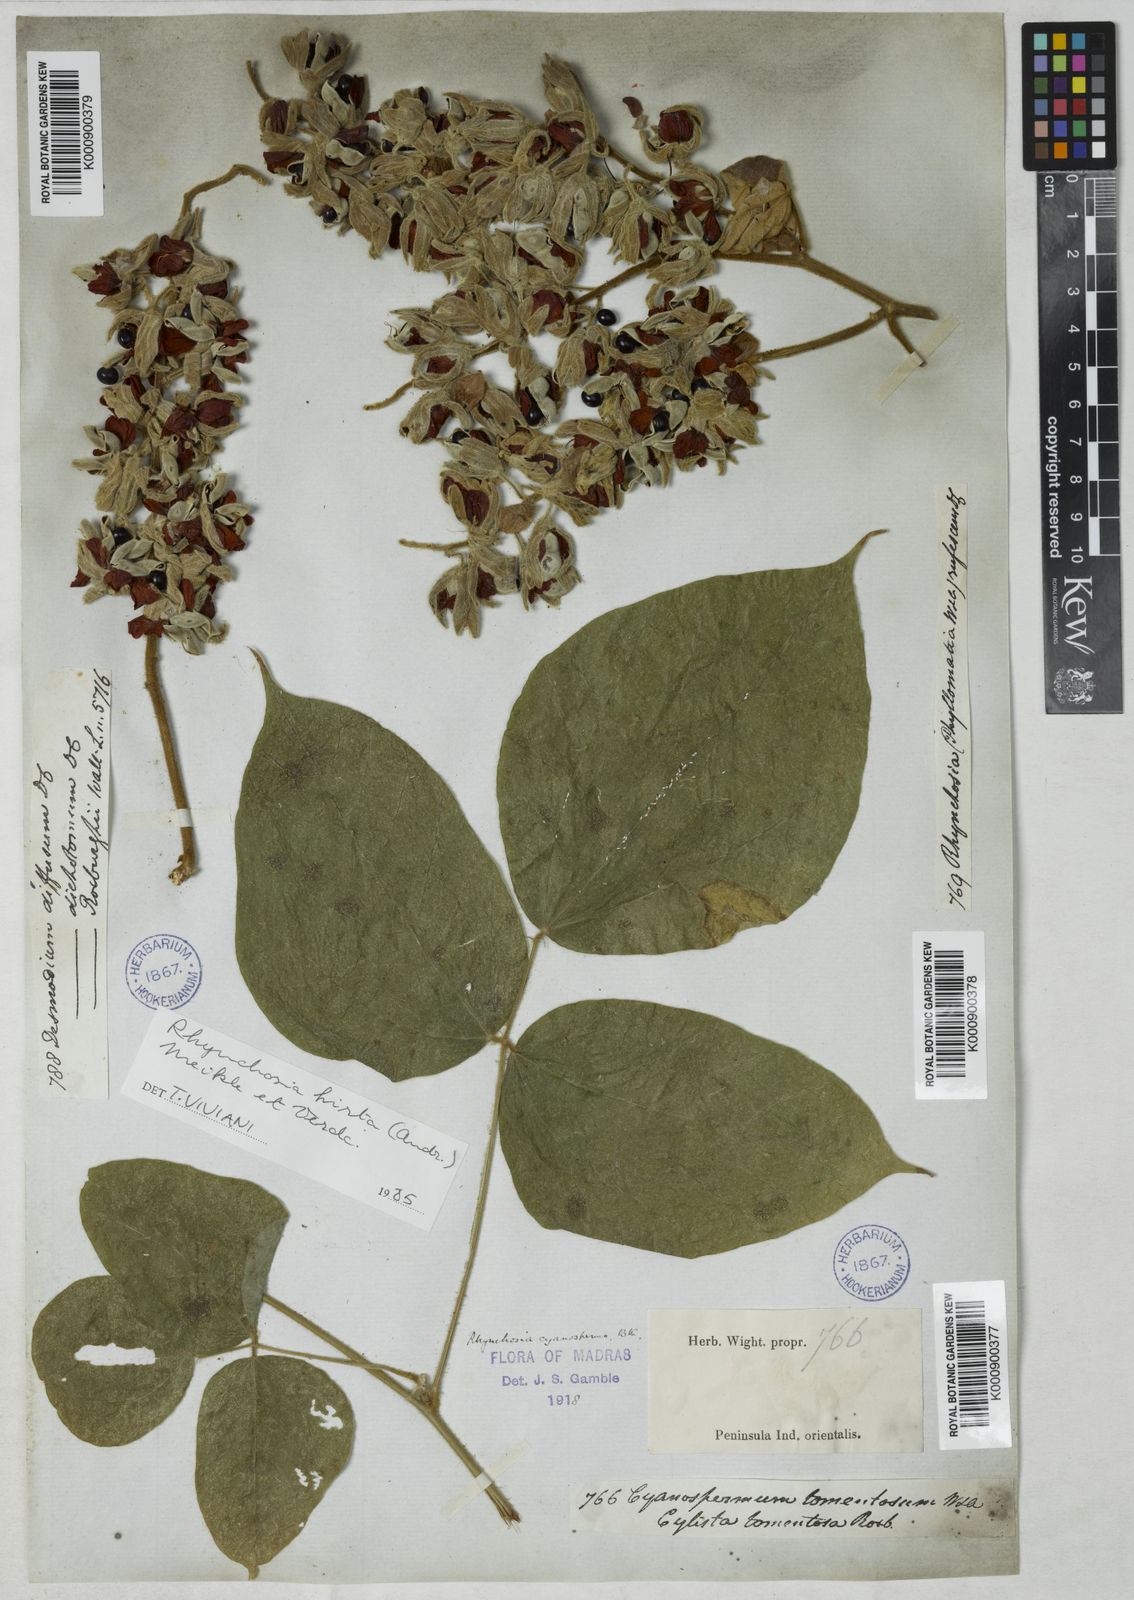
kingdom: Plantae
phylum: Tracheophyta
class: Magnoliopsida
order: Fabales
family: Fabaceae
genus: Rhynchosia
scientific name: Rhynchosia hirta
